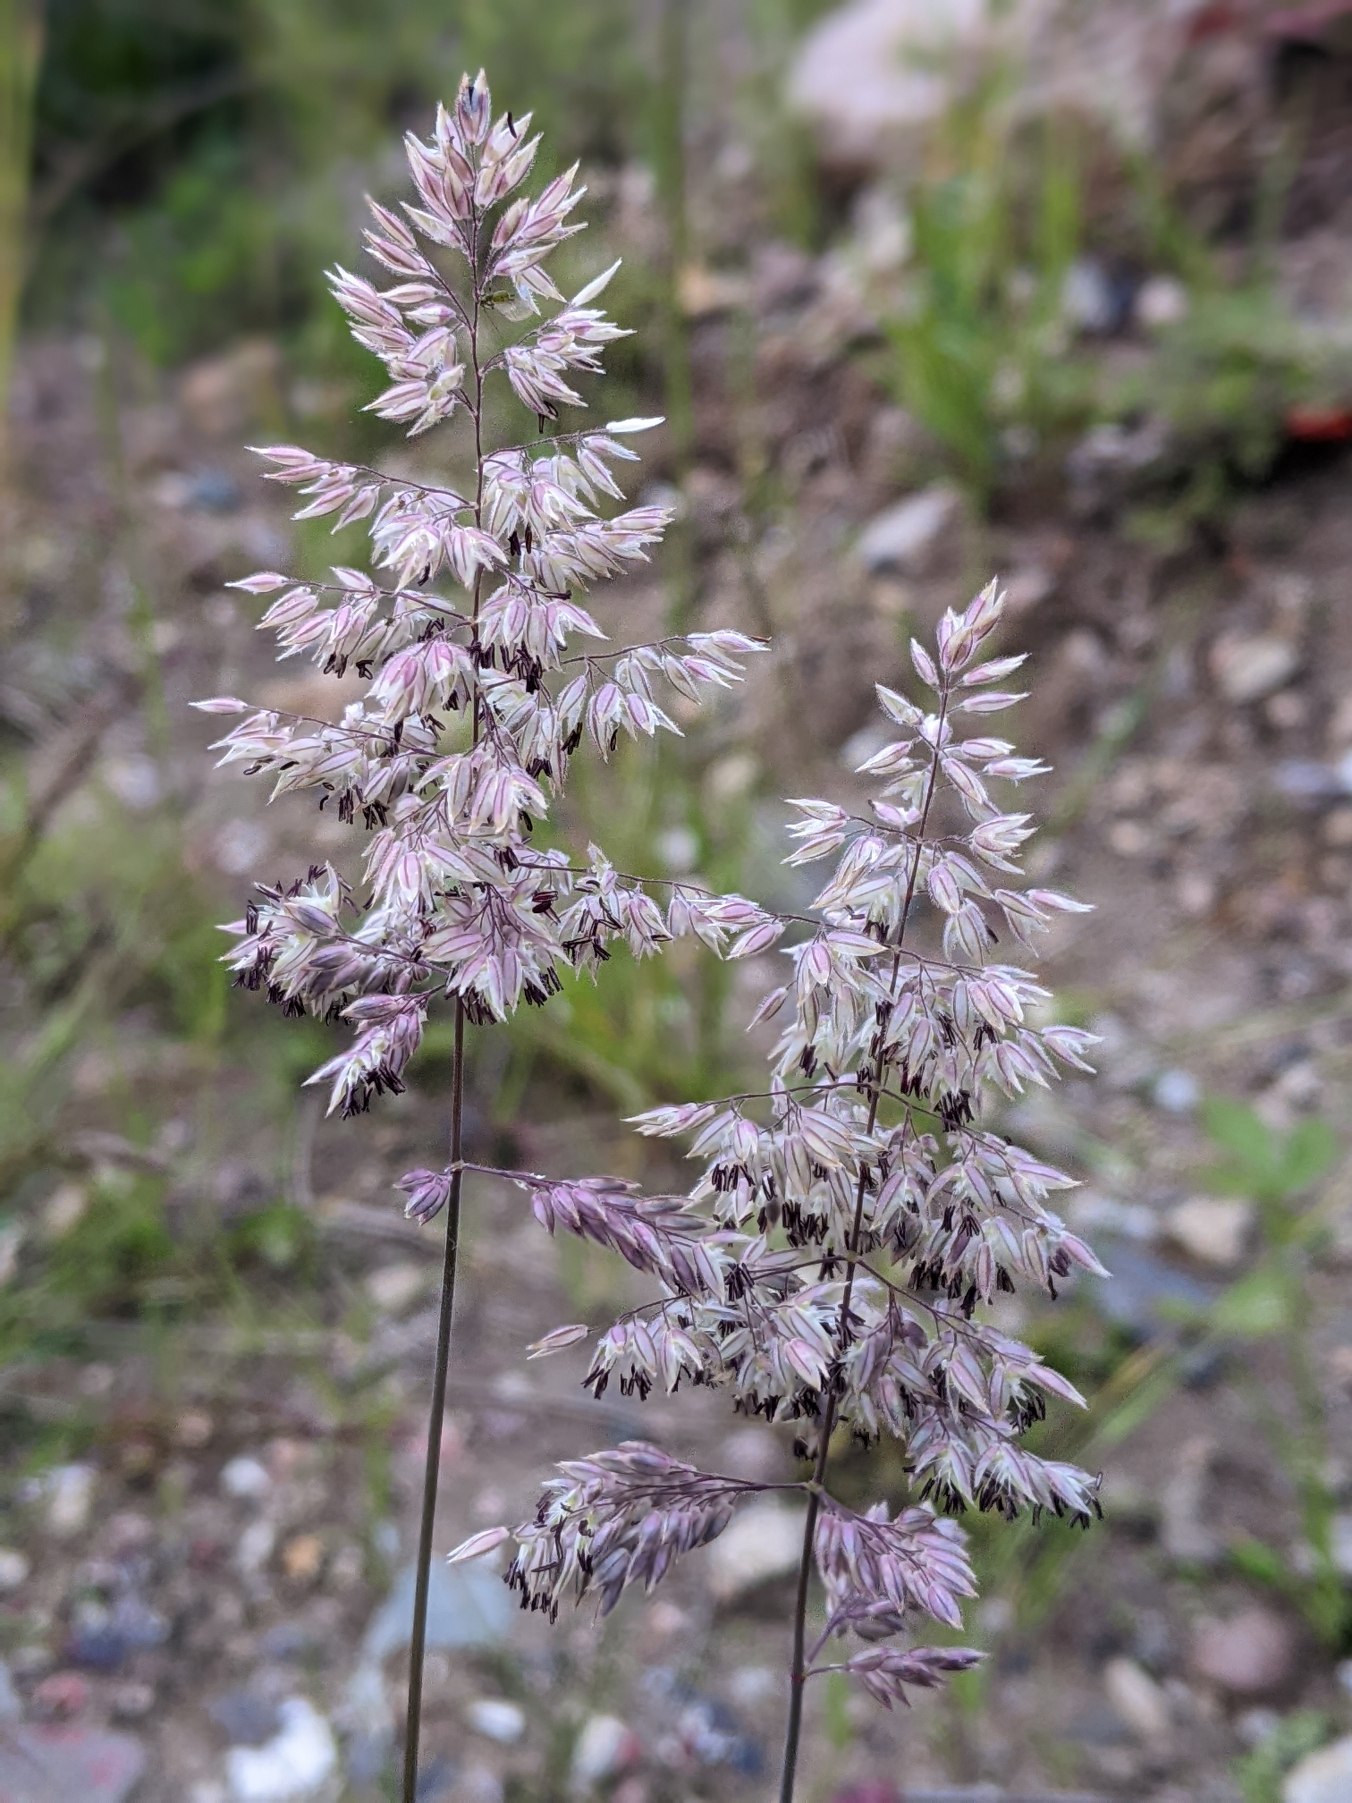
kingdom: Plantae
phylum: Tracheophyta
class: Liliopsida
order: Poales
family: Poaceae
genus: Holcus
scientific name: Holcus lanatus
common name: Fløjlsgræs
